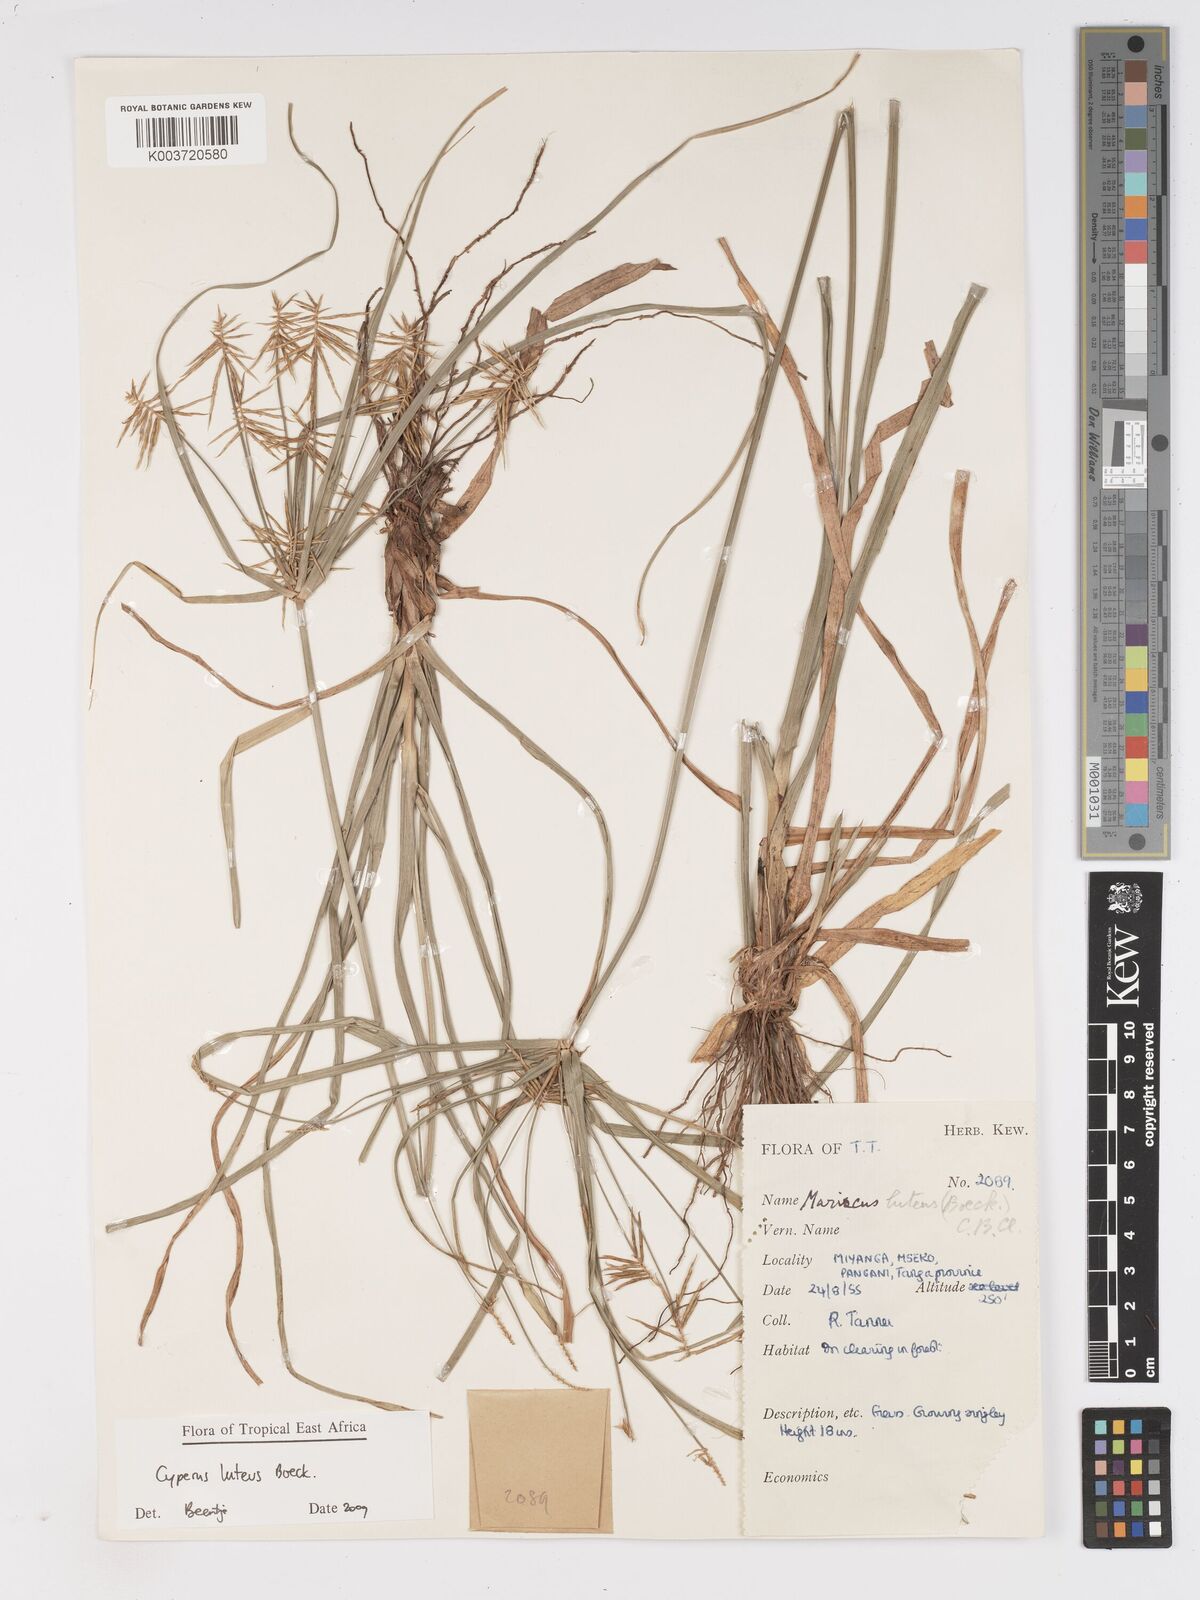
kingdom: Plantae
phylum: Tracheophyta
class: Liliopsida
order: Poales
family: Cyperaceae
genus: Cyperus
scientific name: Cyperus luteus
